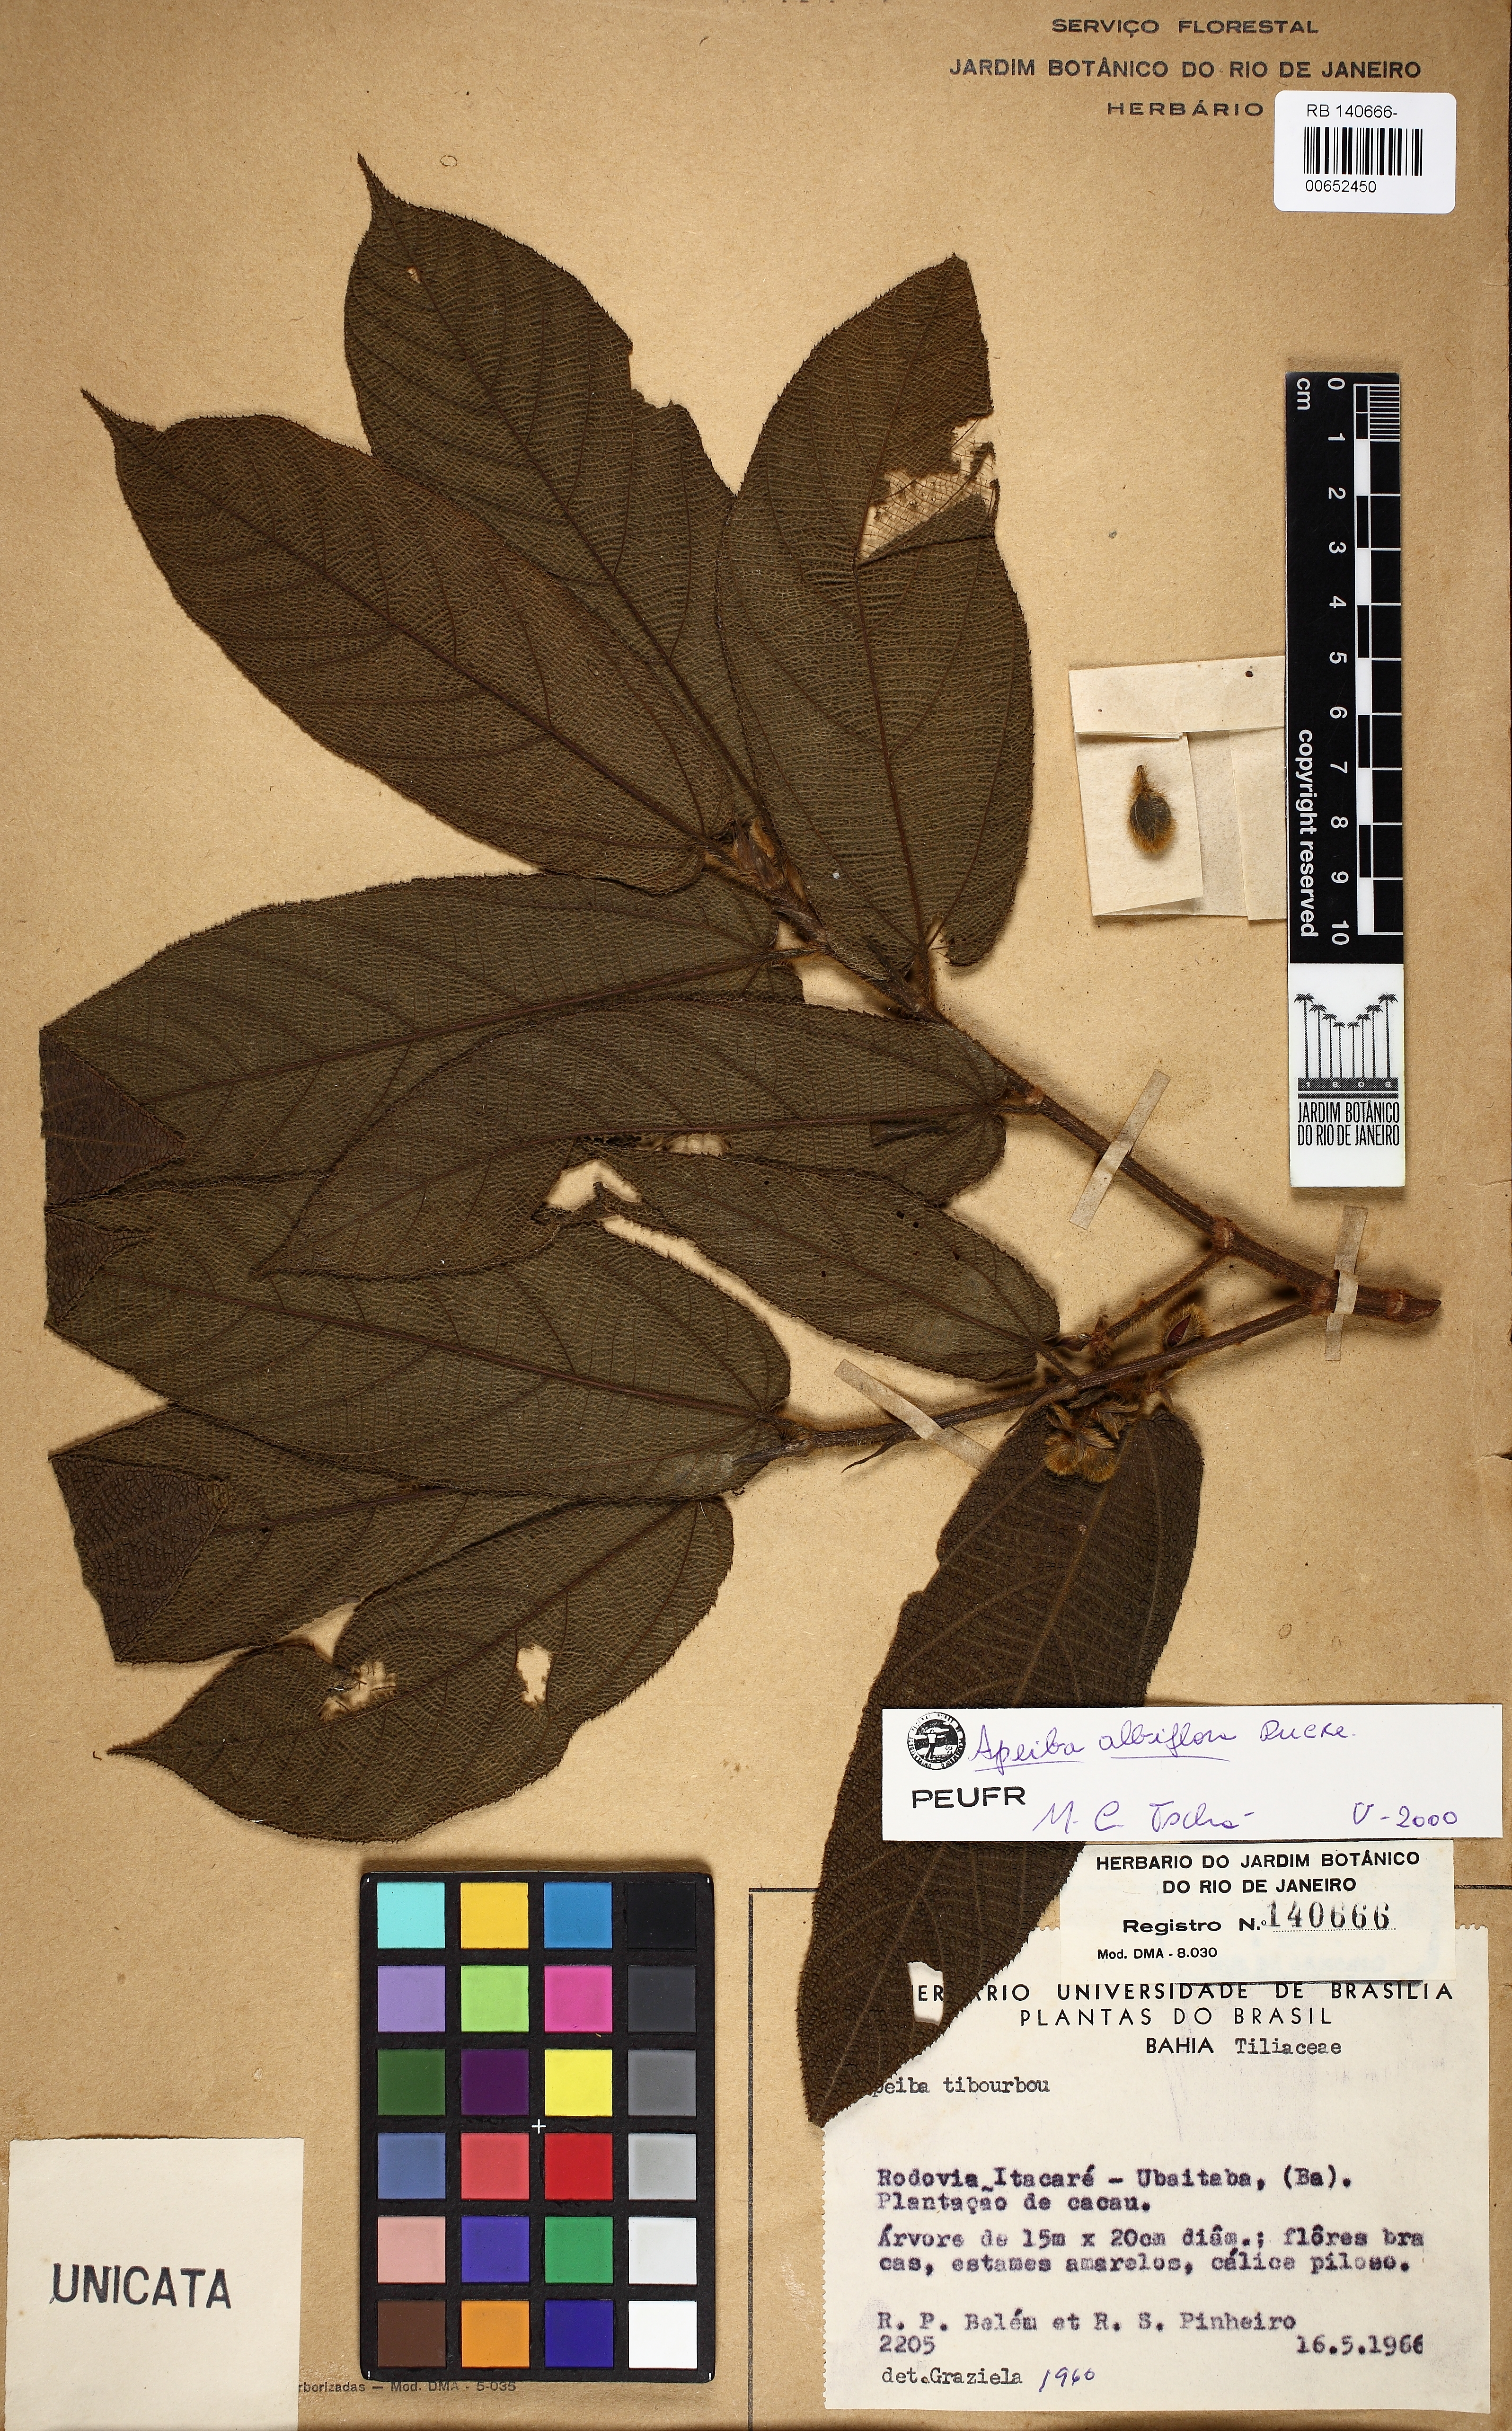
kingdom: Plantae
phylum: Tracheophyta
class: Magnoliopsida
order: Malvales
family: Malvaceae
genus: Apeiba
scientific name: Apeiba albiflora
